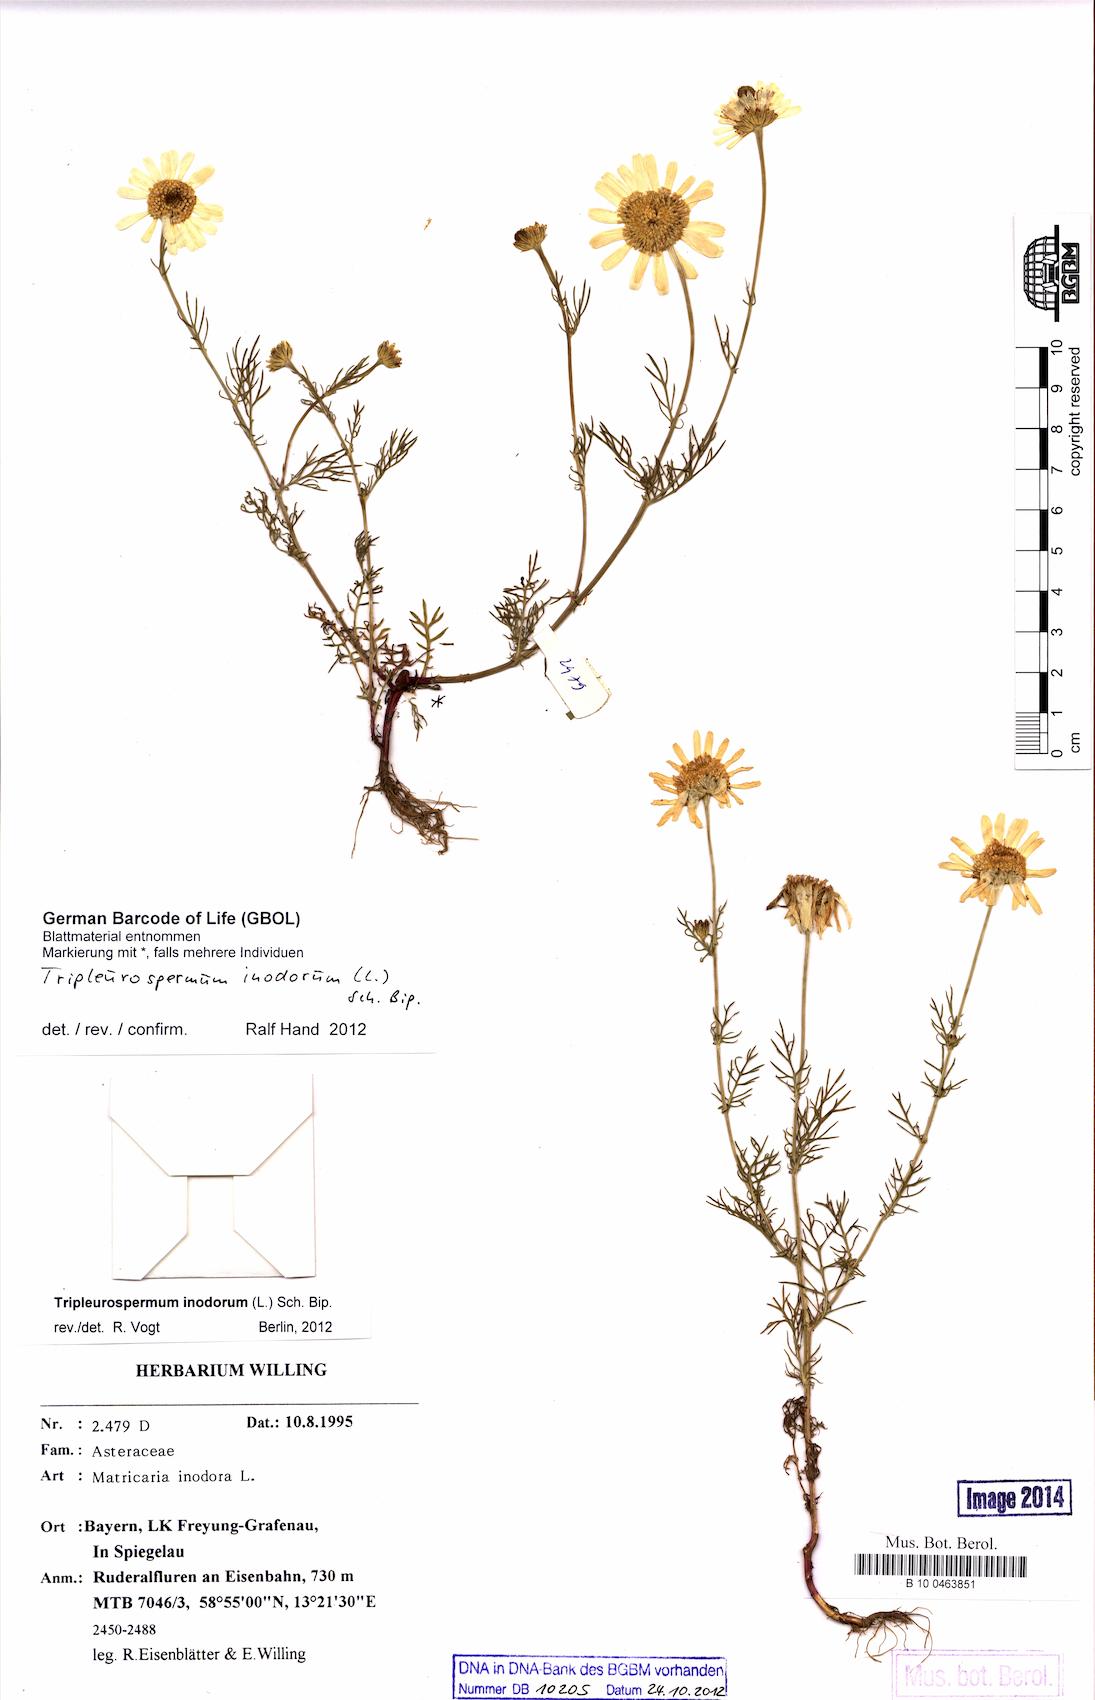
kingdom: Plantae
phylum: Tracheophyta
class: Magnoliopsida
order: Asterales
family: Asteraceae
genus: Tripleurospermum
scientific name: Tripleurospermum inodorum
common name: Scentless mayweed
